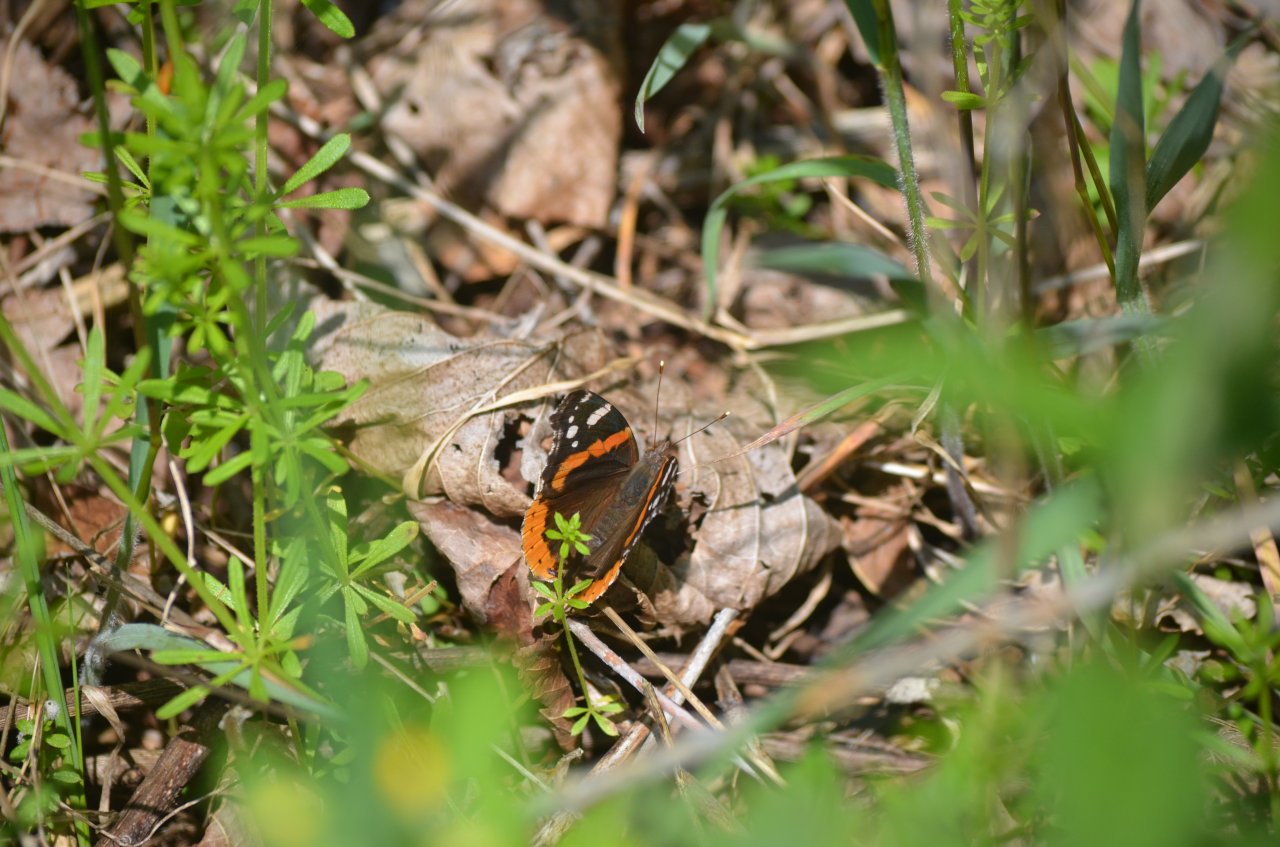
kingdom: Animalia
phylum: Arthropoda
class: Insecta
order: Lepidoptera
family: Nymphalidae
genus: Vanessa
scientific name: Vanessa atalanta
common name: Red Admiral
